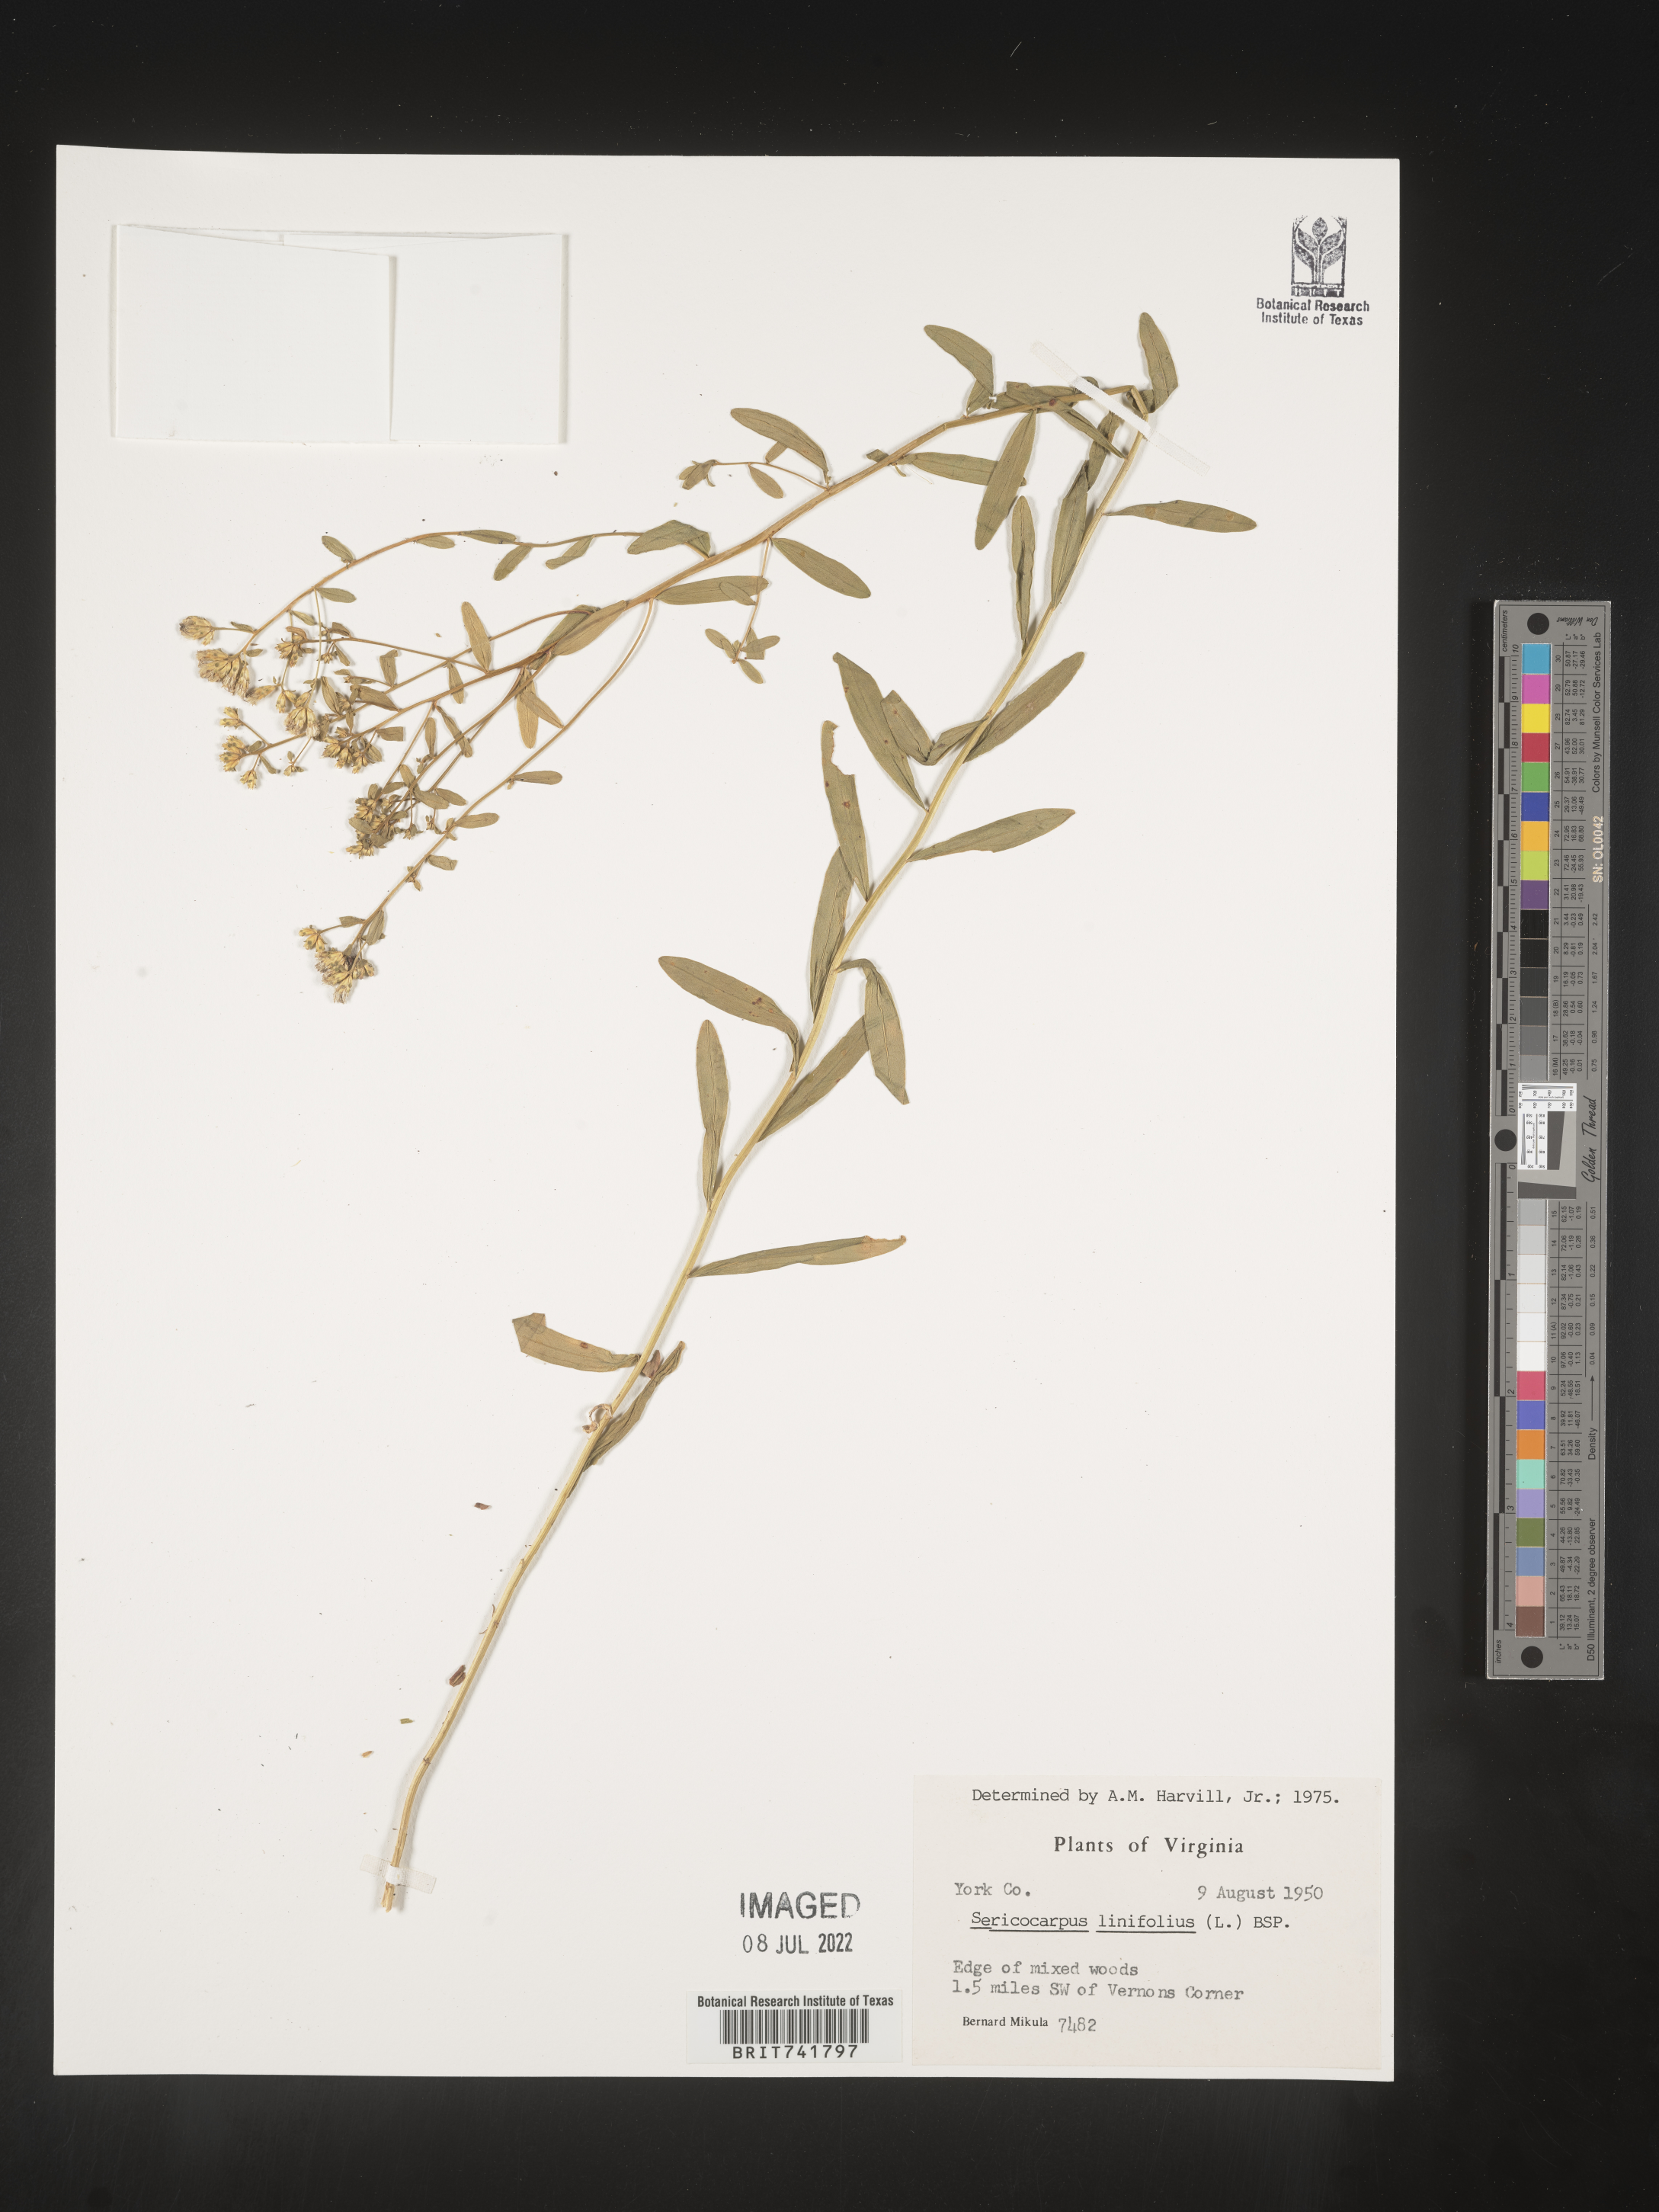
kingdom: Plantae
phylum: Tracheophyta
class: Magnoliopsida
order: Asterales
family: Asteraceae
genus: Sericocarpus
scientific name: Sericocarpus linifolius
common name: Narrow-leaf aster
